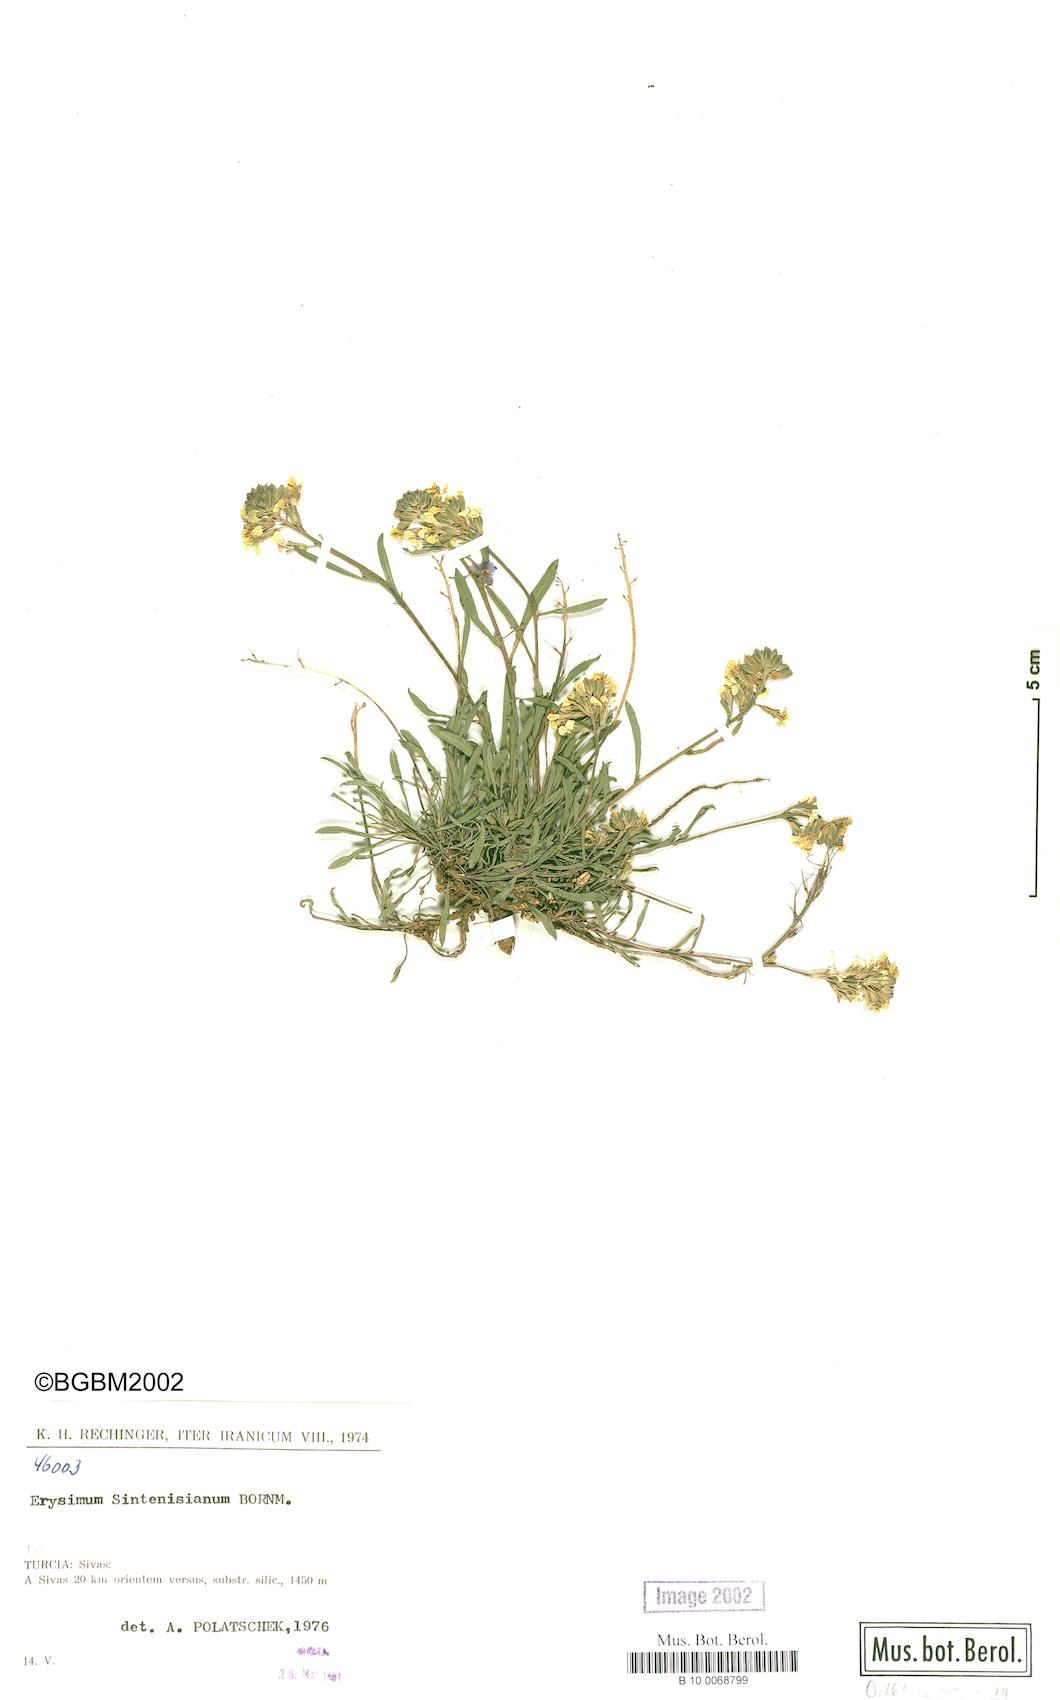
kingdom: Plantae
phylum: Tracheophyta
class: Magnoliopsida
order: Brassicales
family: Brassicaceae
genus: Erysimum
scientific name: Erysimum sintenisianum
